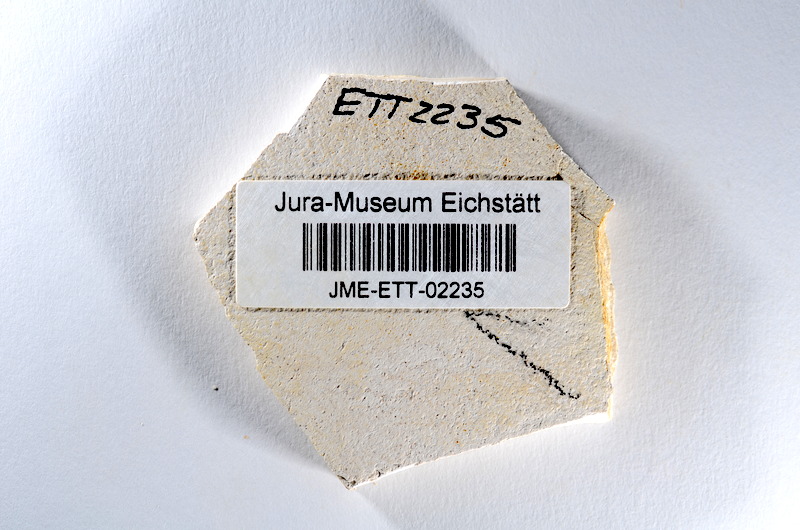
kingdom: Animalia
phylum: Chordata
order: Salmoniformes
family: Orthogonikleithridae
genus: Orthogonikleithrus
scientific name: Orthogonikleithrus hoelli
